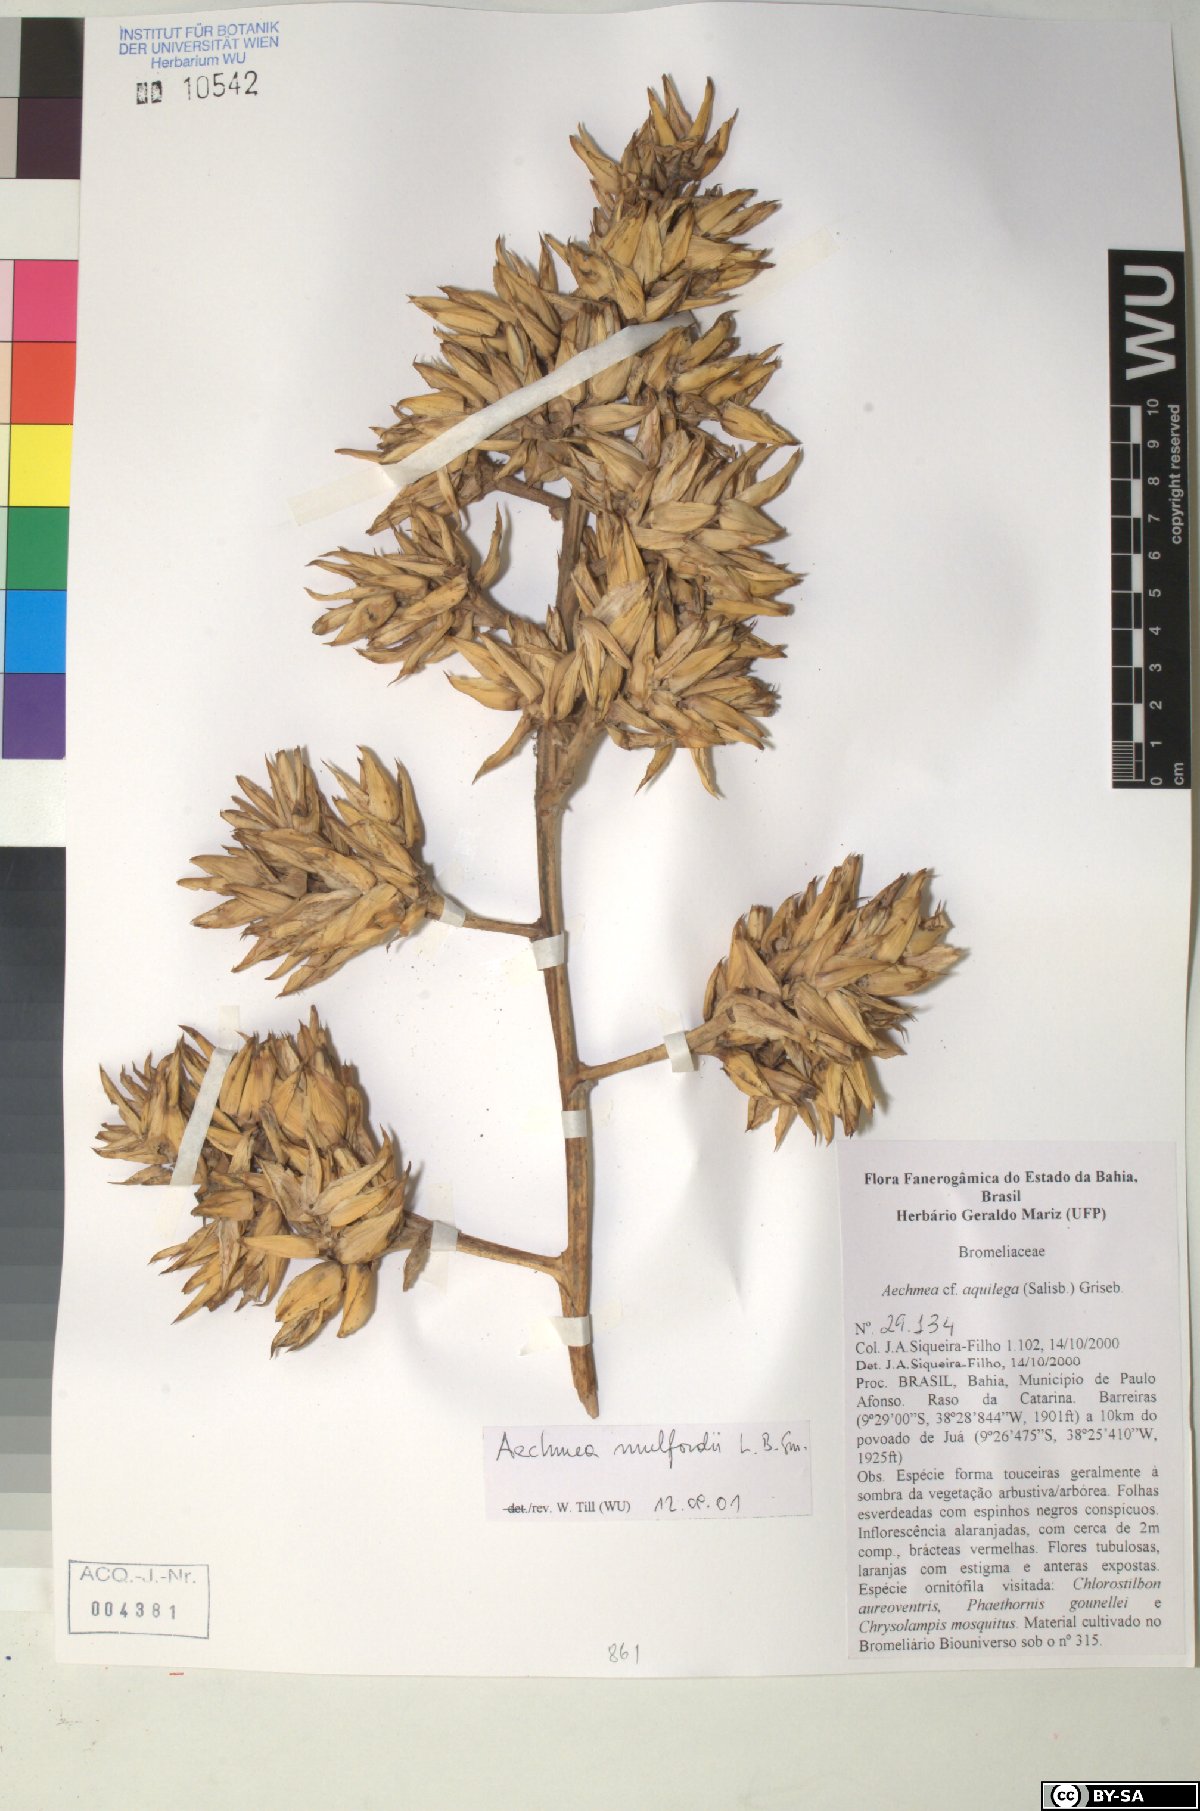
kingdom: Plantae
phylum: Tracheophyta
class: Liliopsida
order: Poales
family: Bromeliaceae
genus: Aechmea
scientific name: Aechmea aquilega
